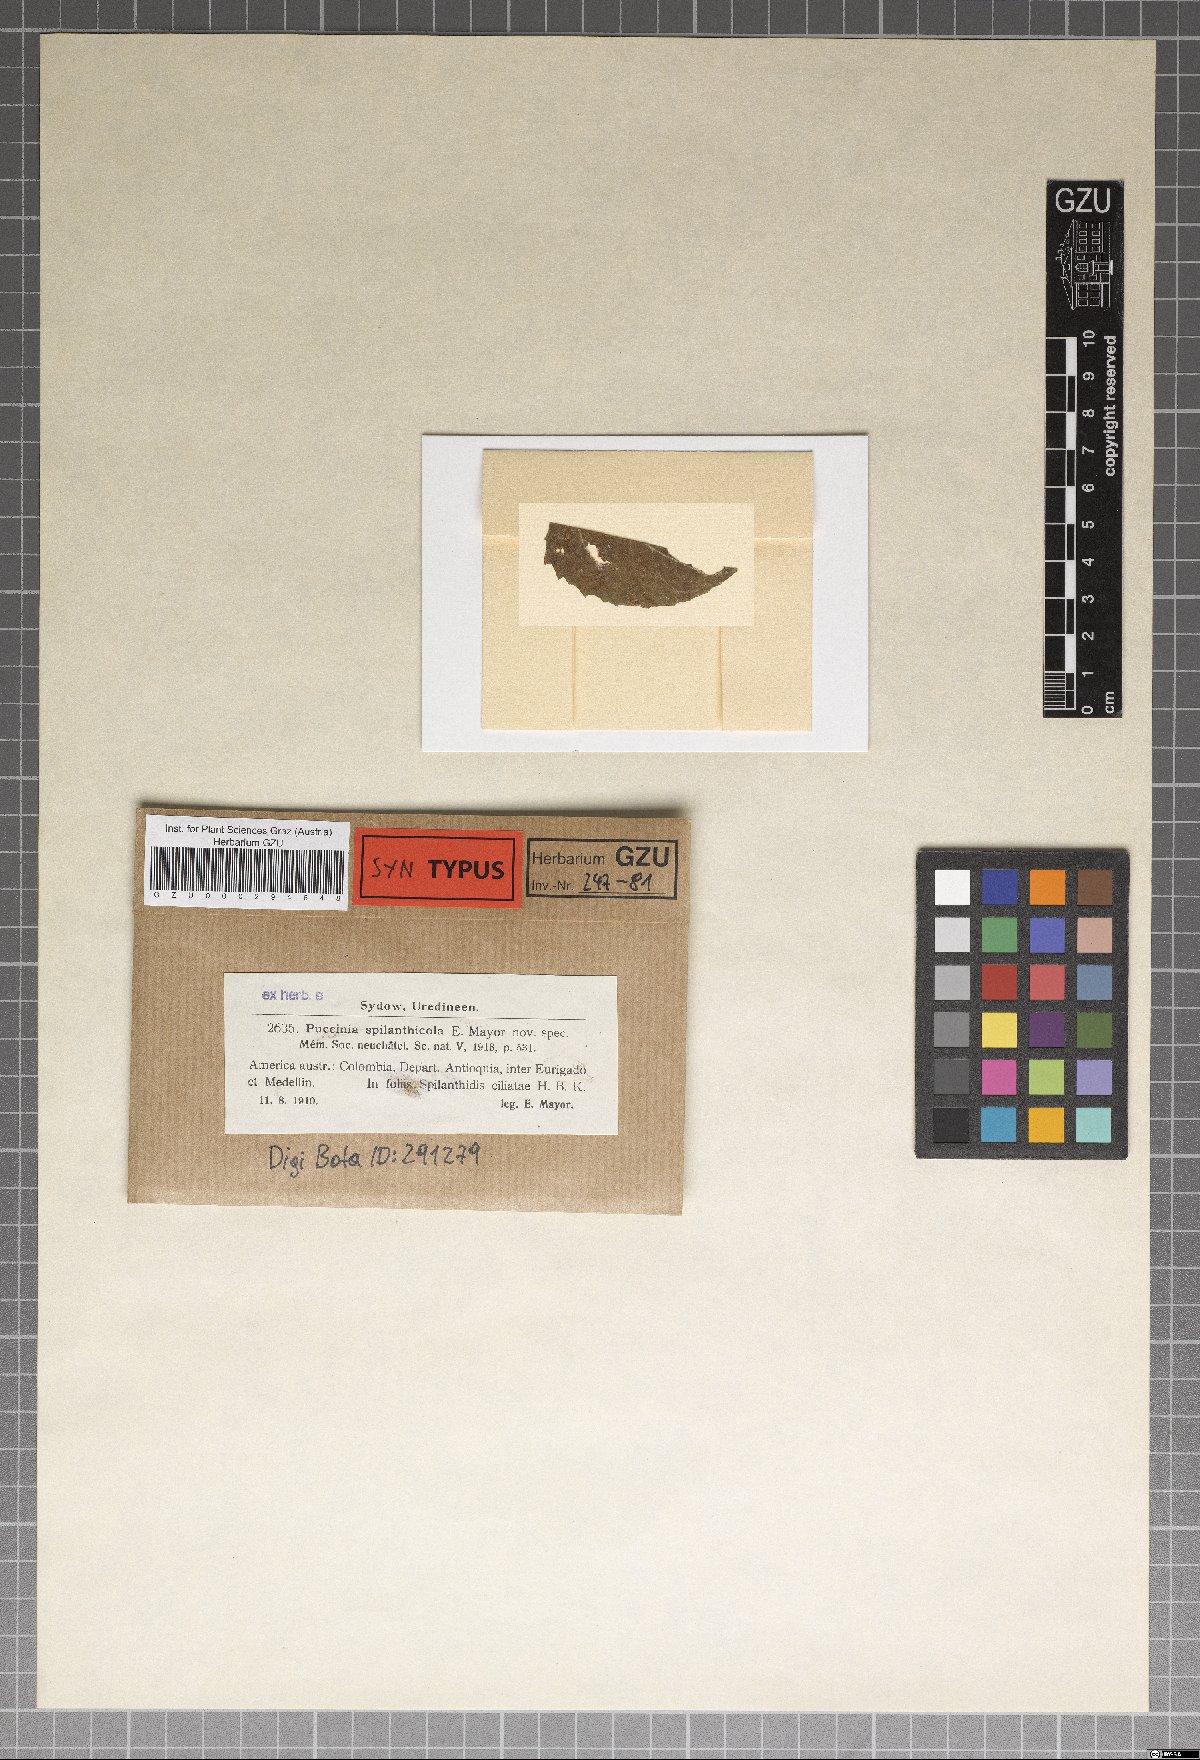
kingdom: Fungi
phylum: Basidiomycota
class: Pucciniomycetes
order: Pucciniales
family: Pucciniaceae
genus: Puccinia
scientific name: Puccinia spilanthicola
